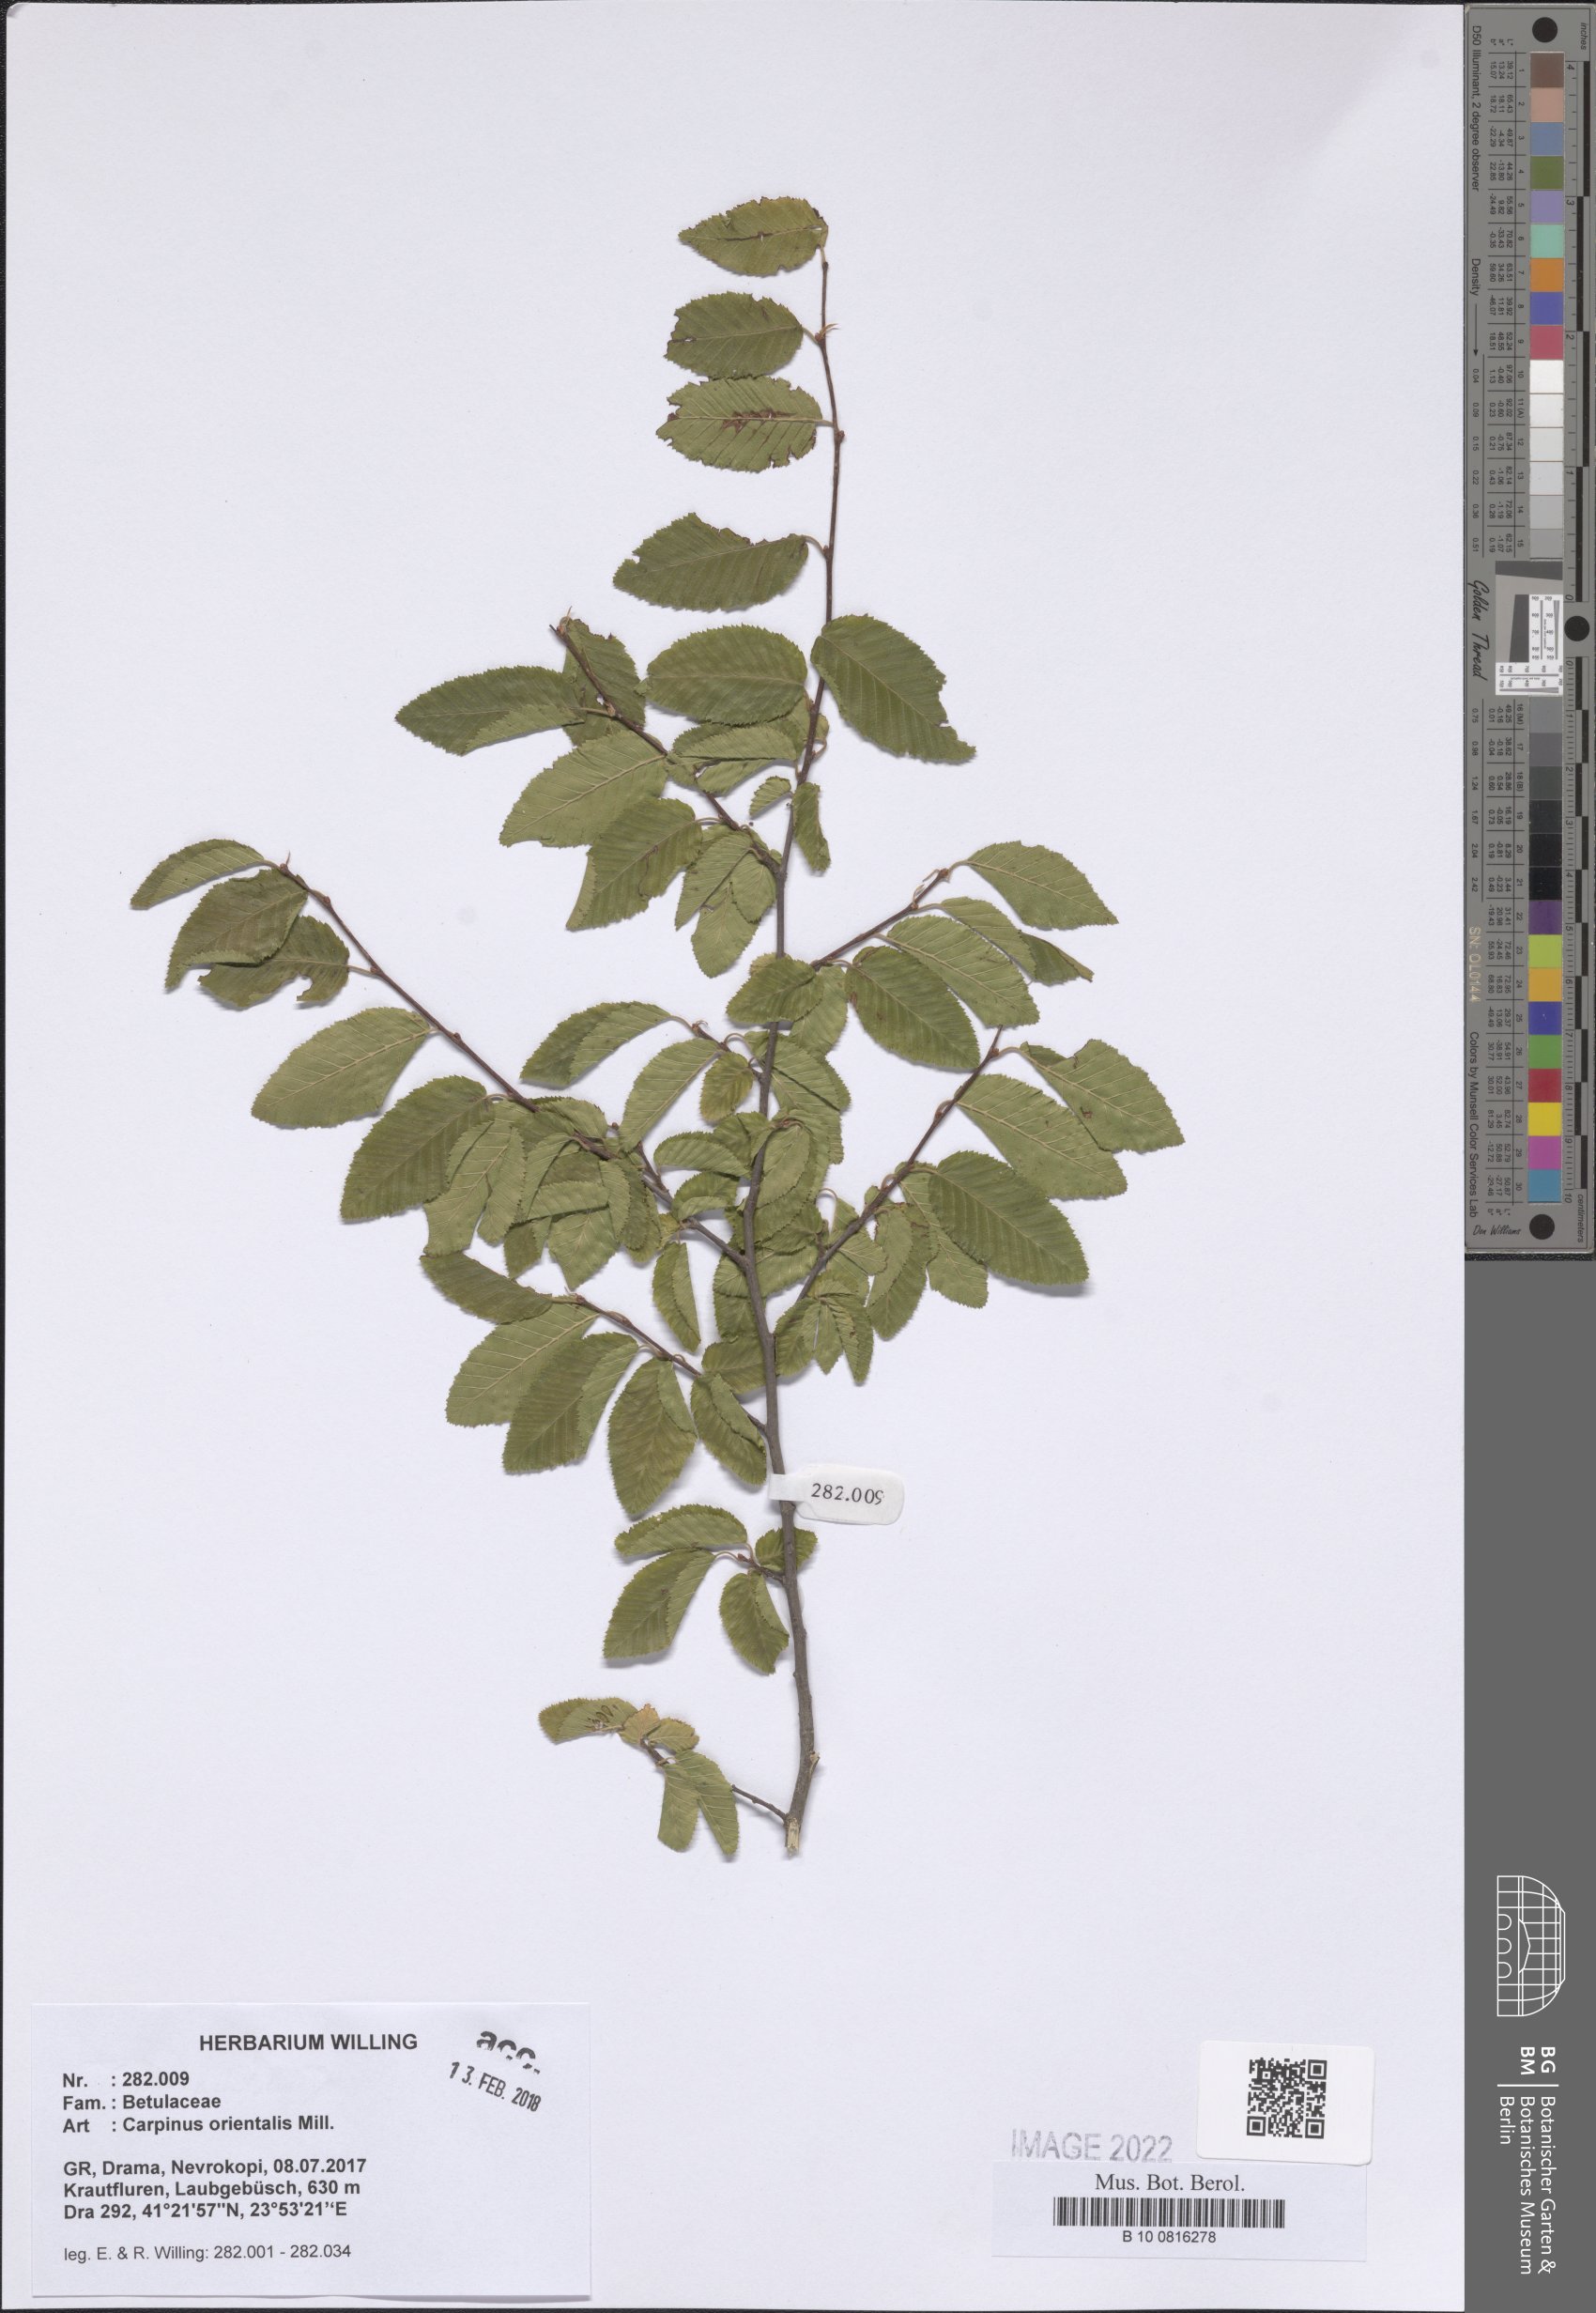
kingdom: Plantae
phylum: Tracheophyta
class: Magnoliopsida
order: Fagales
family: Betulaceae
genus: Carpinus
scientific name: Carpinus orientalis
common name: Eastern hornbeam
